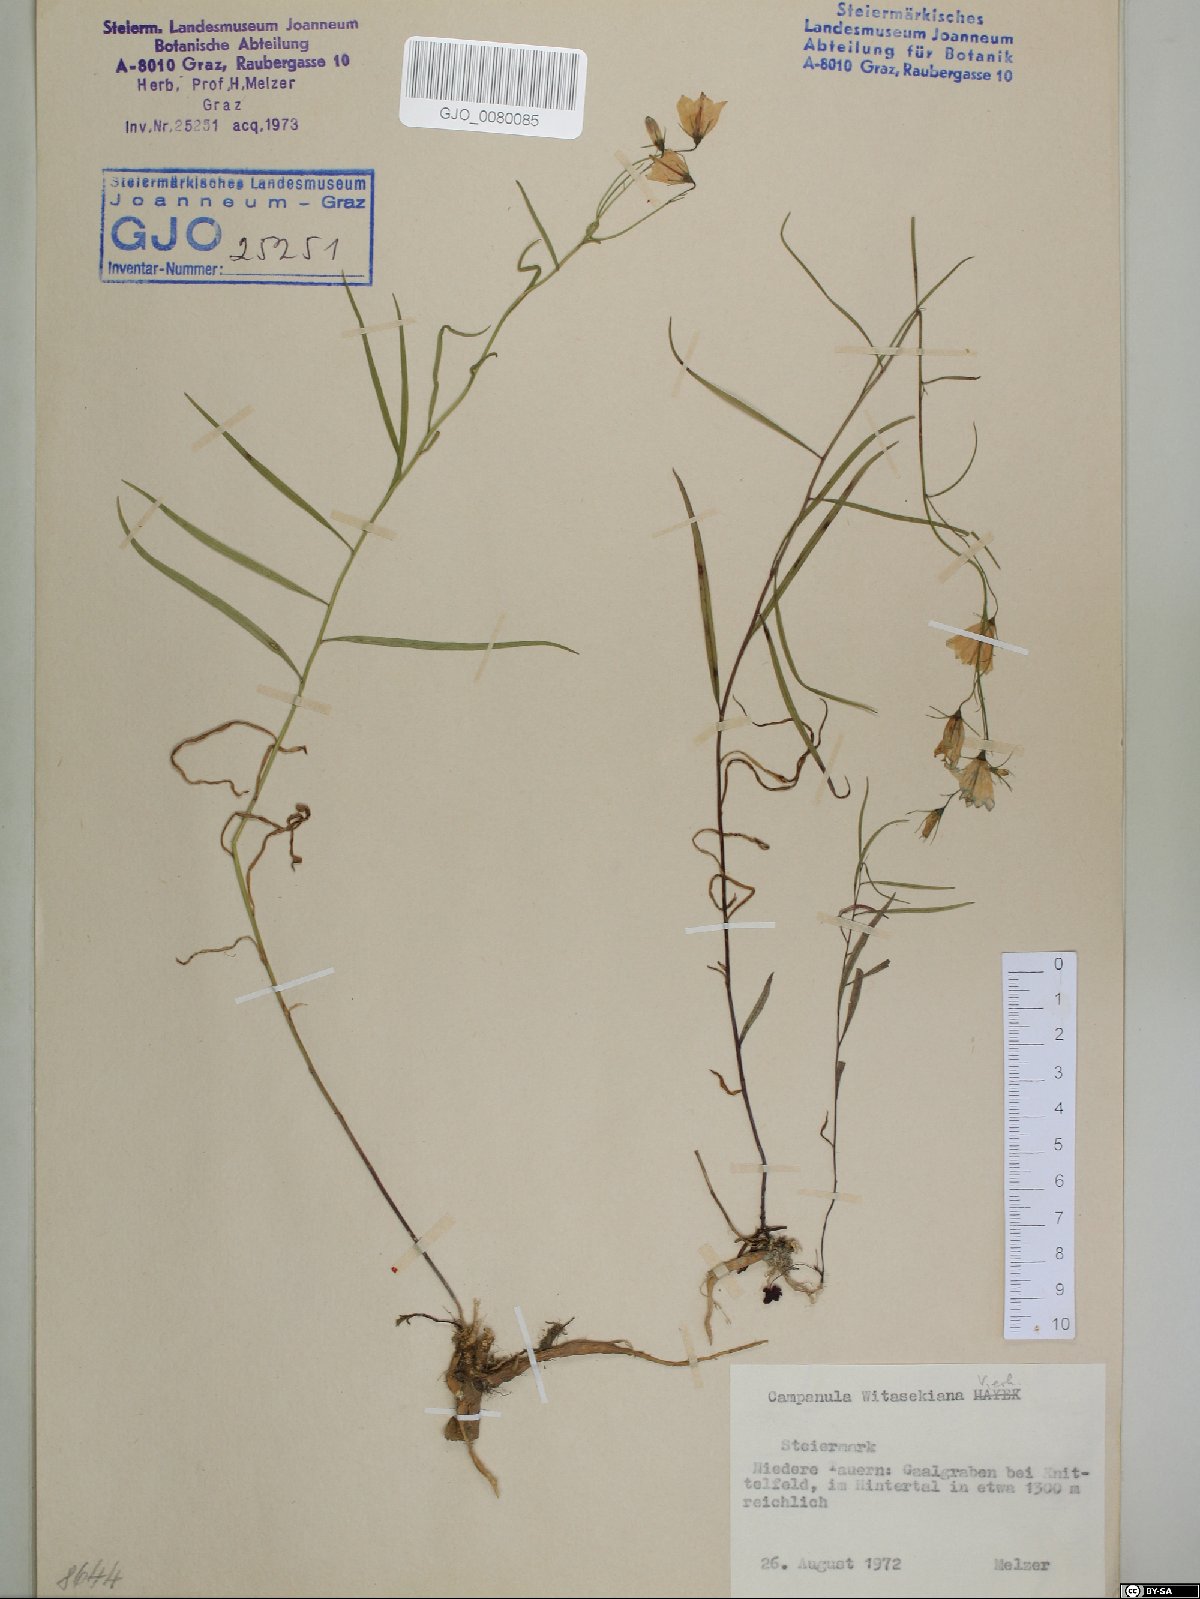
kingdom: Plantae
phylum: Tracheophyta
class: Magnoliopsida
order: Asterales
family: Campanulaceae
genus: Campanula
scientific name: Campanula witasekiana
